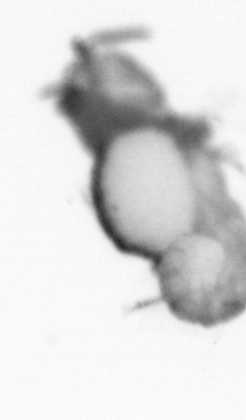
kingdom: Animalia
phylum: Annelida
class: Polychaeta
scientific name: Polychaeta
